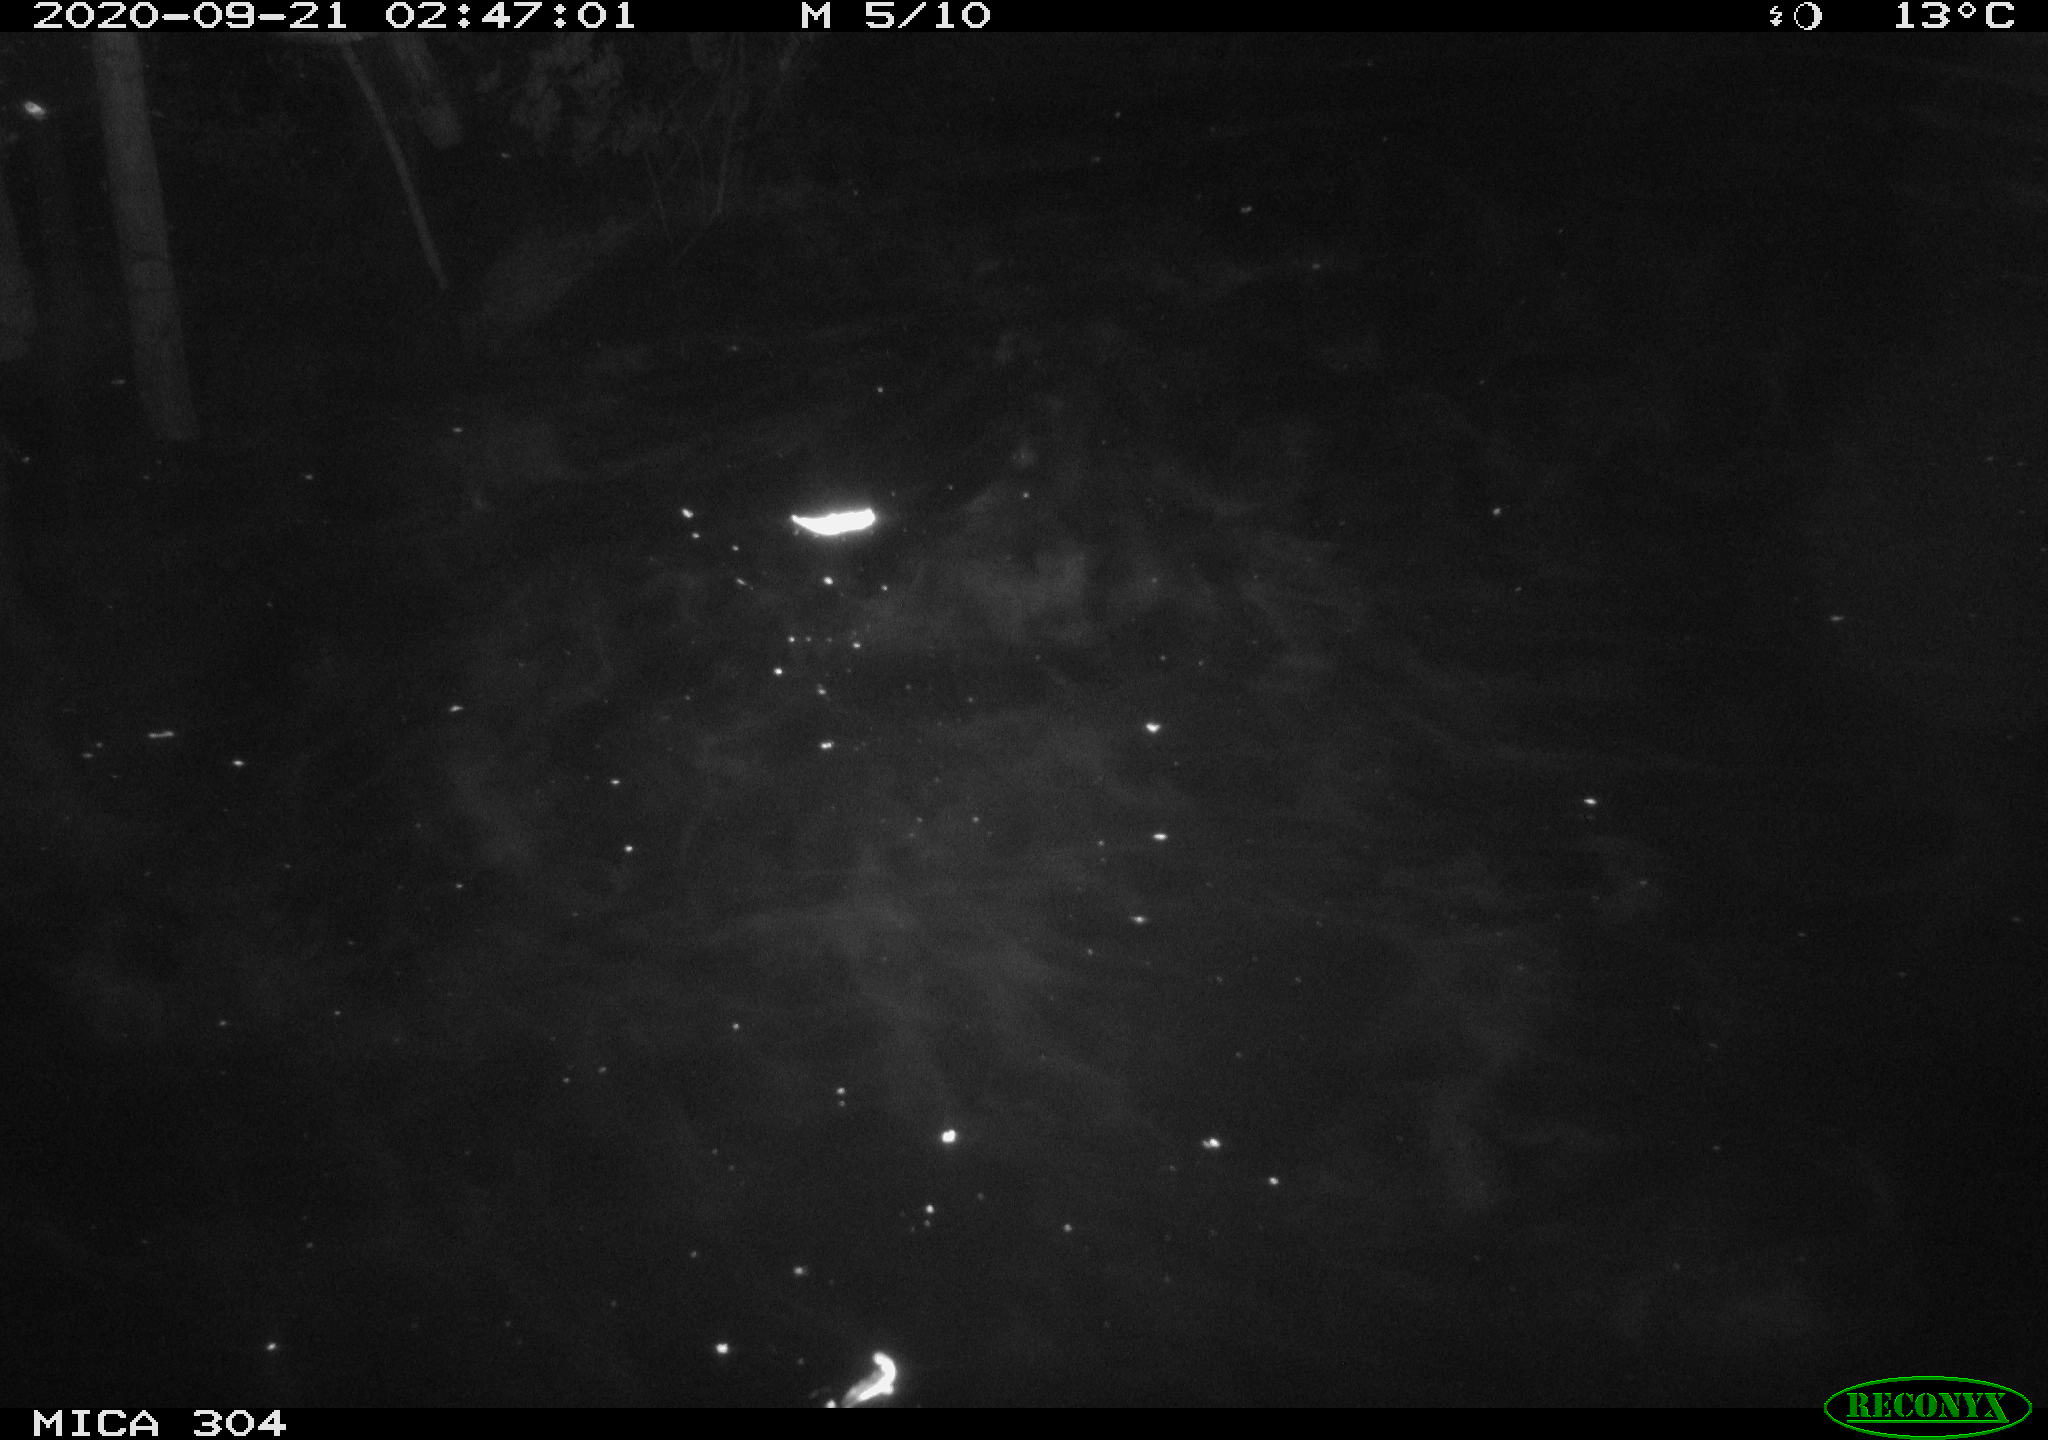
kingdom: Animalia
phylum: Chordata
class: Mammalia
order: Rodentia
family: Cricetidae
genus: Ondatra
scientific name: Ondatra zibethicus
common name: Muskrat
